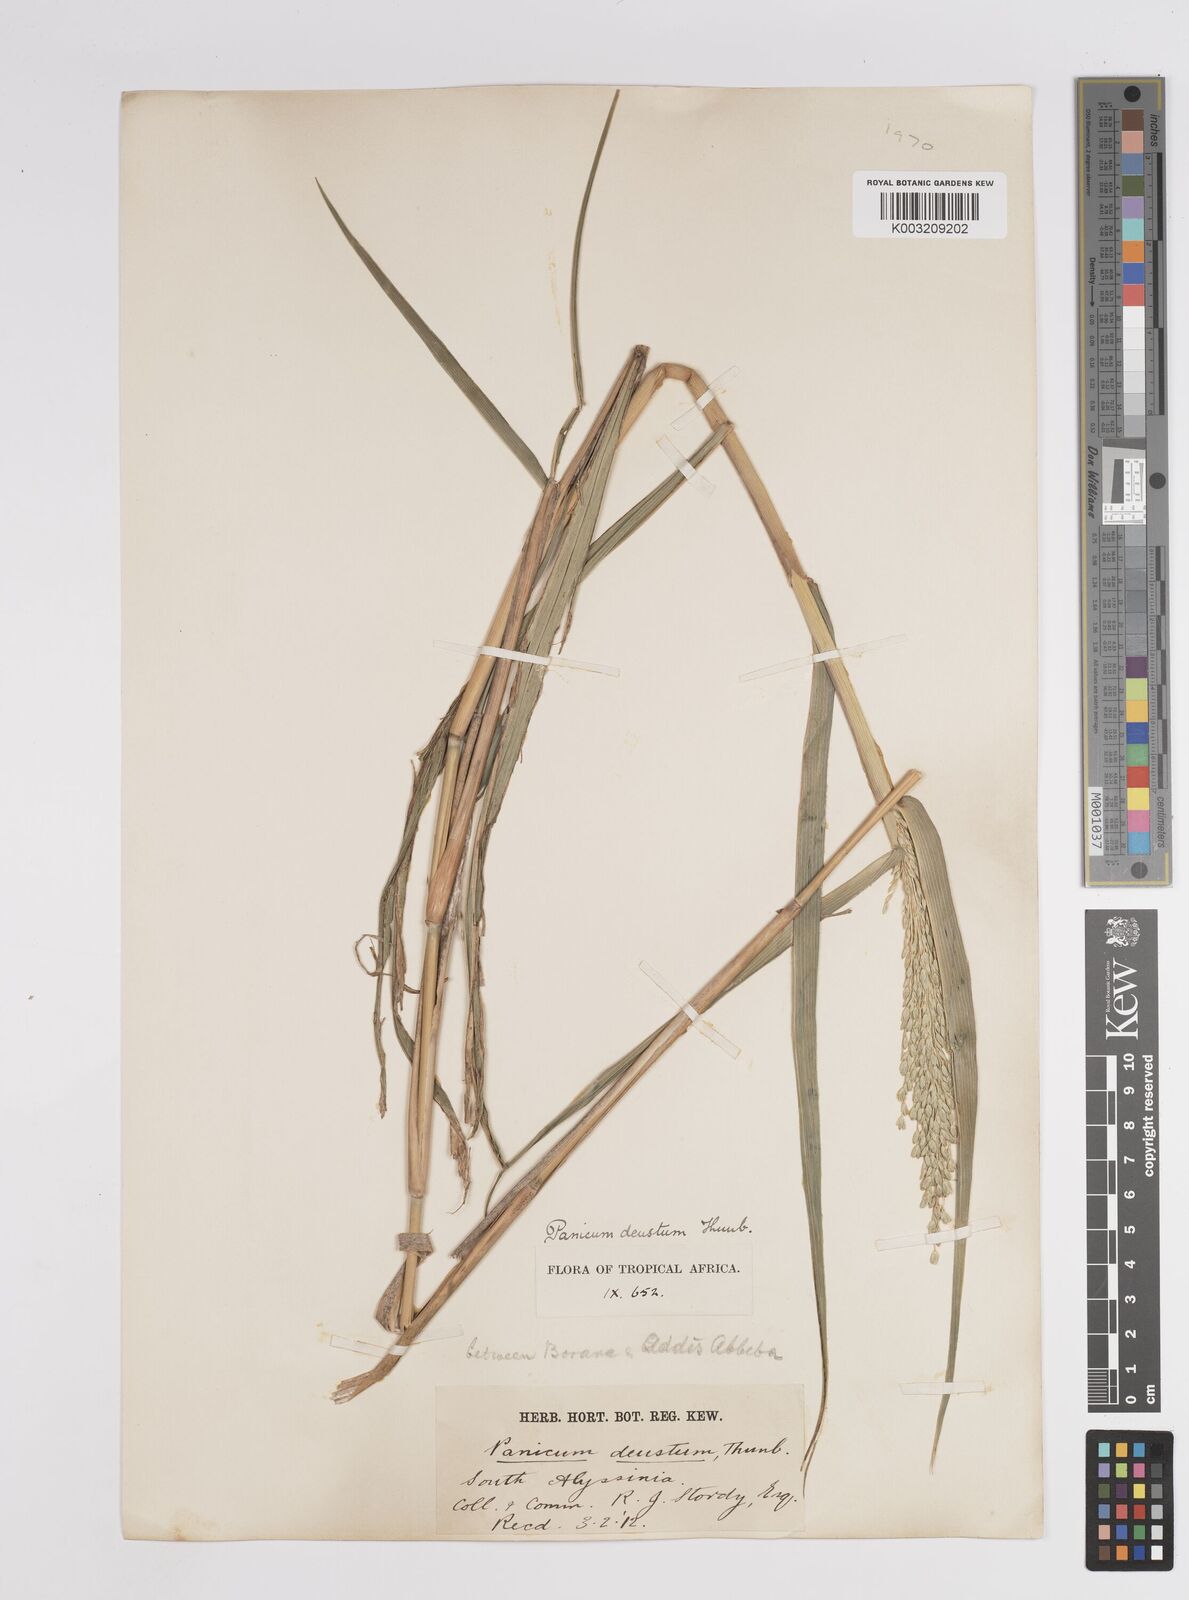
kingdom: Plantae
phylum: Tracheophyta
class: Liliopsida
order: Poales
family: Poaceae
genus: Panicum
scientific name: Panicum
